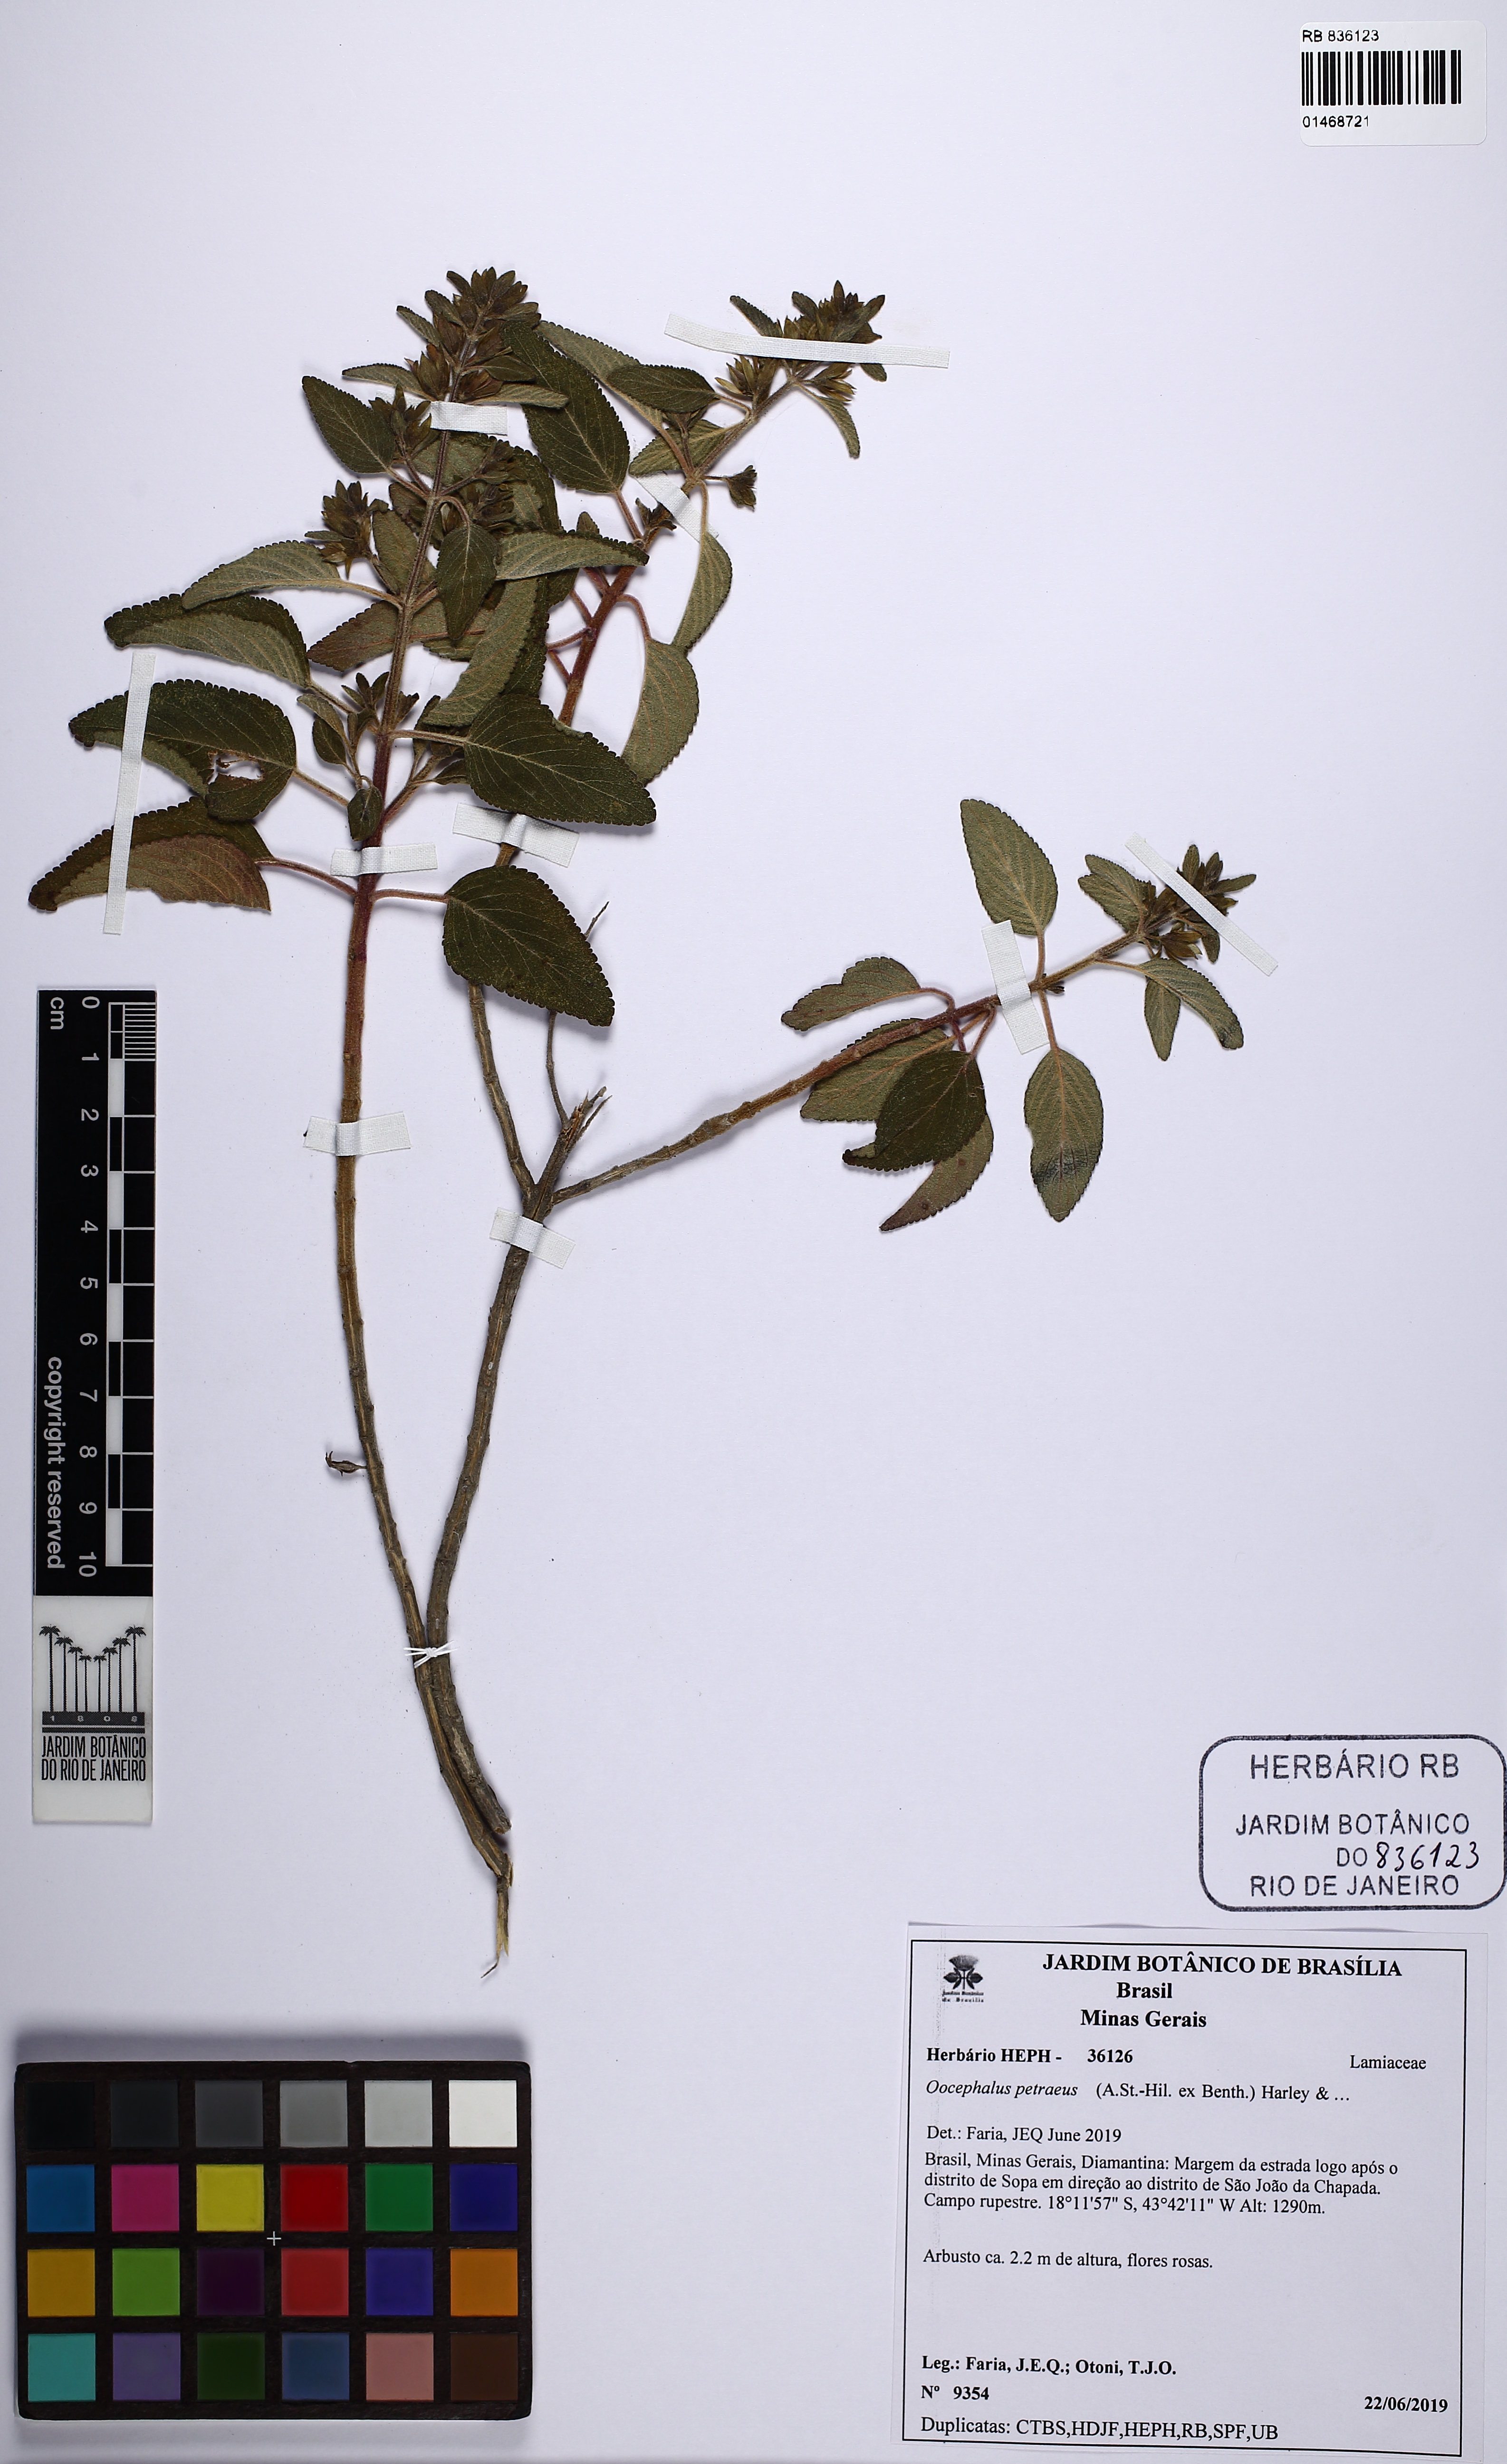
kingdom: Plantae
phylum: Tracheophyta
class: Magnoliopsida
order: Lamiales
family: Lamiaceae
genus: Oocephalus
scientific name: Oocephalus petraeus
